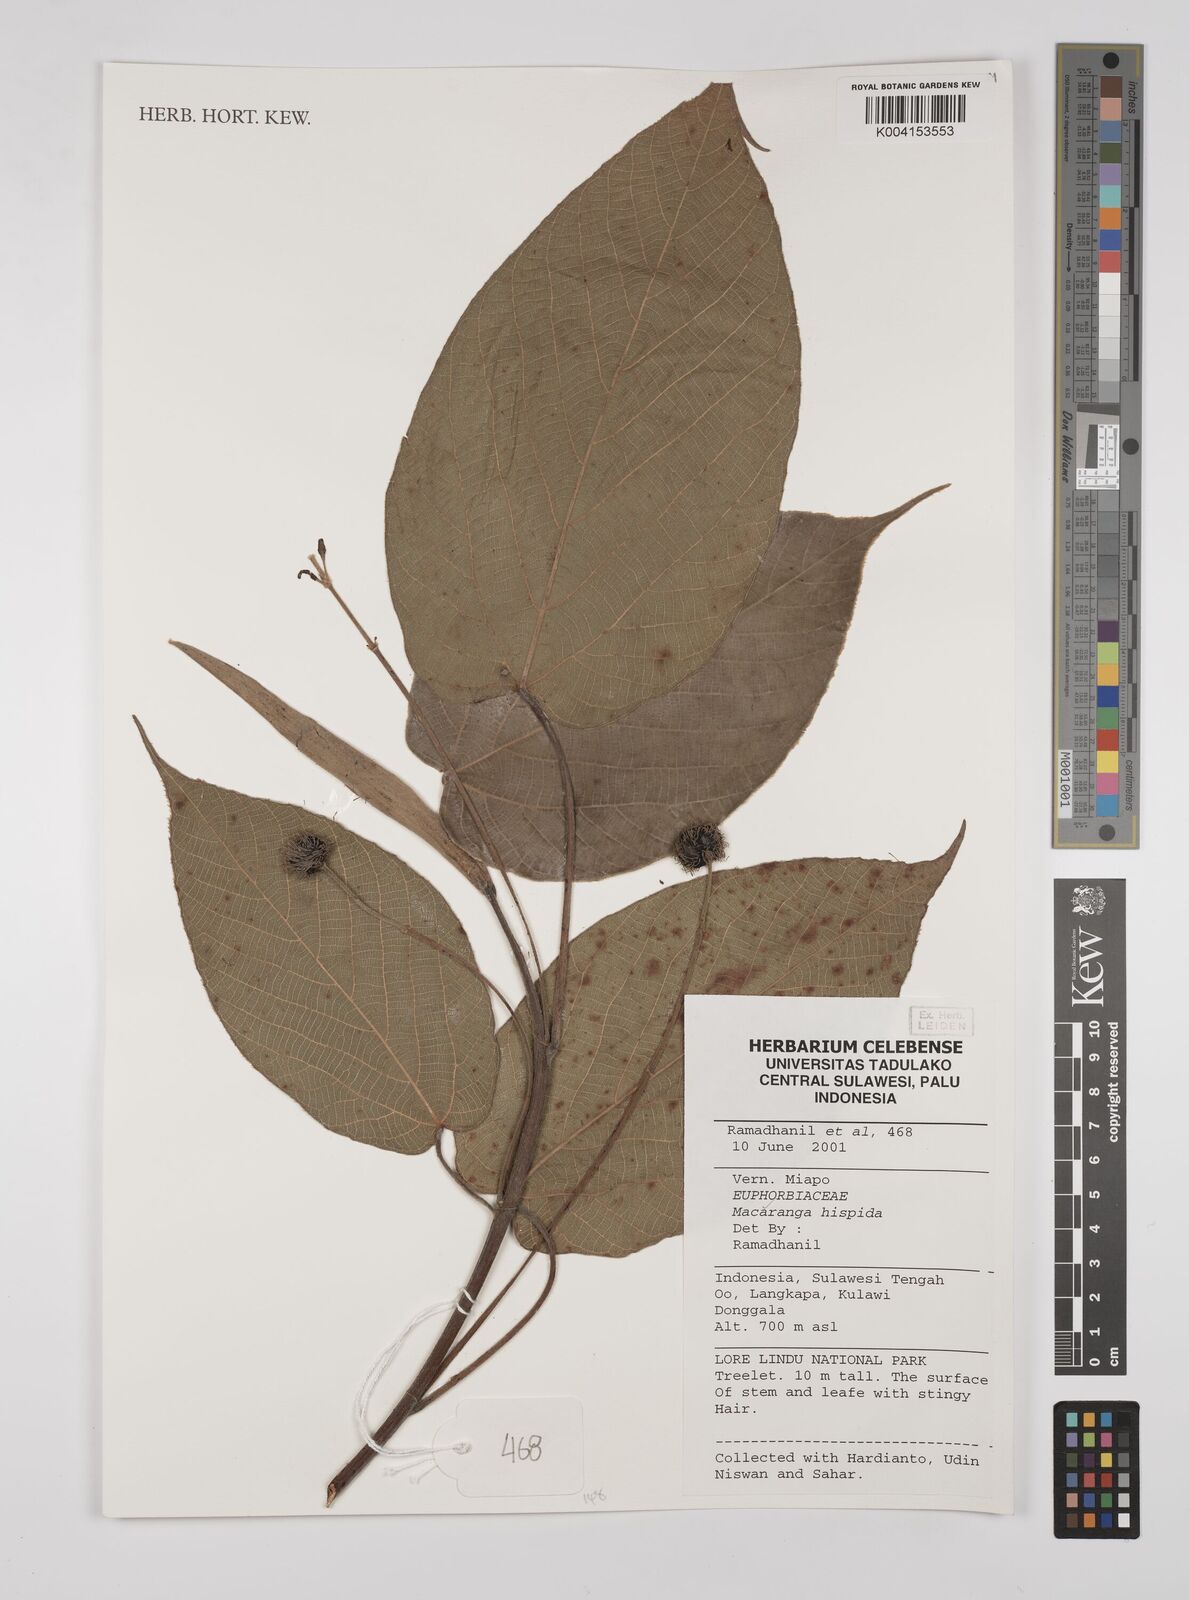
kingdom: Plantae
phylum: Tracheophyta
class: Magnoliopsida
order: Malpighiales
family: Euphorbiaceae
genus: Macaranga
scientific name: Macaranga hispida
